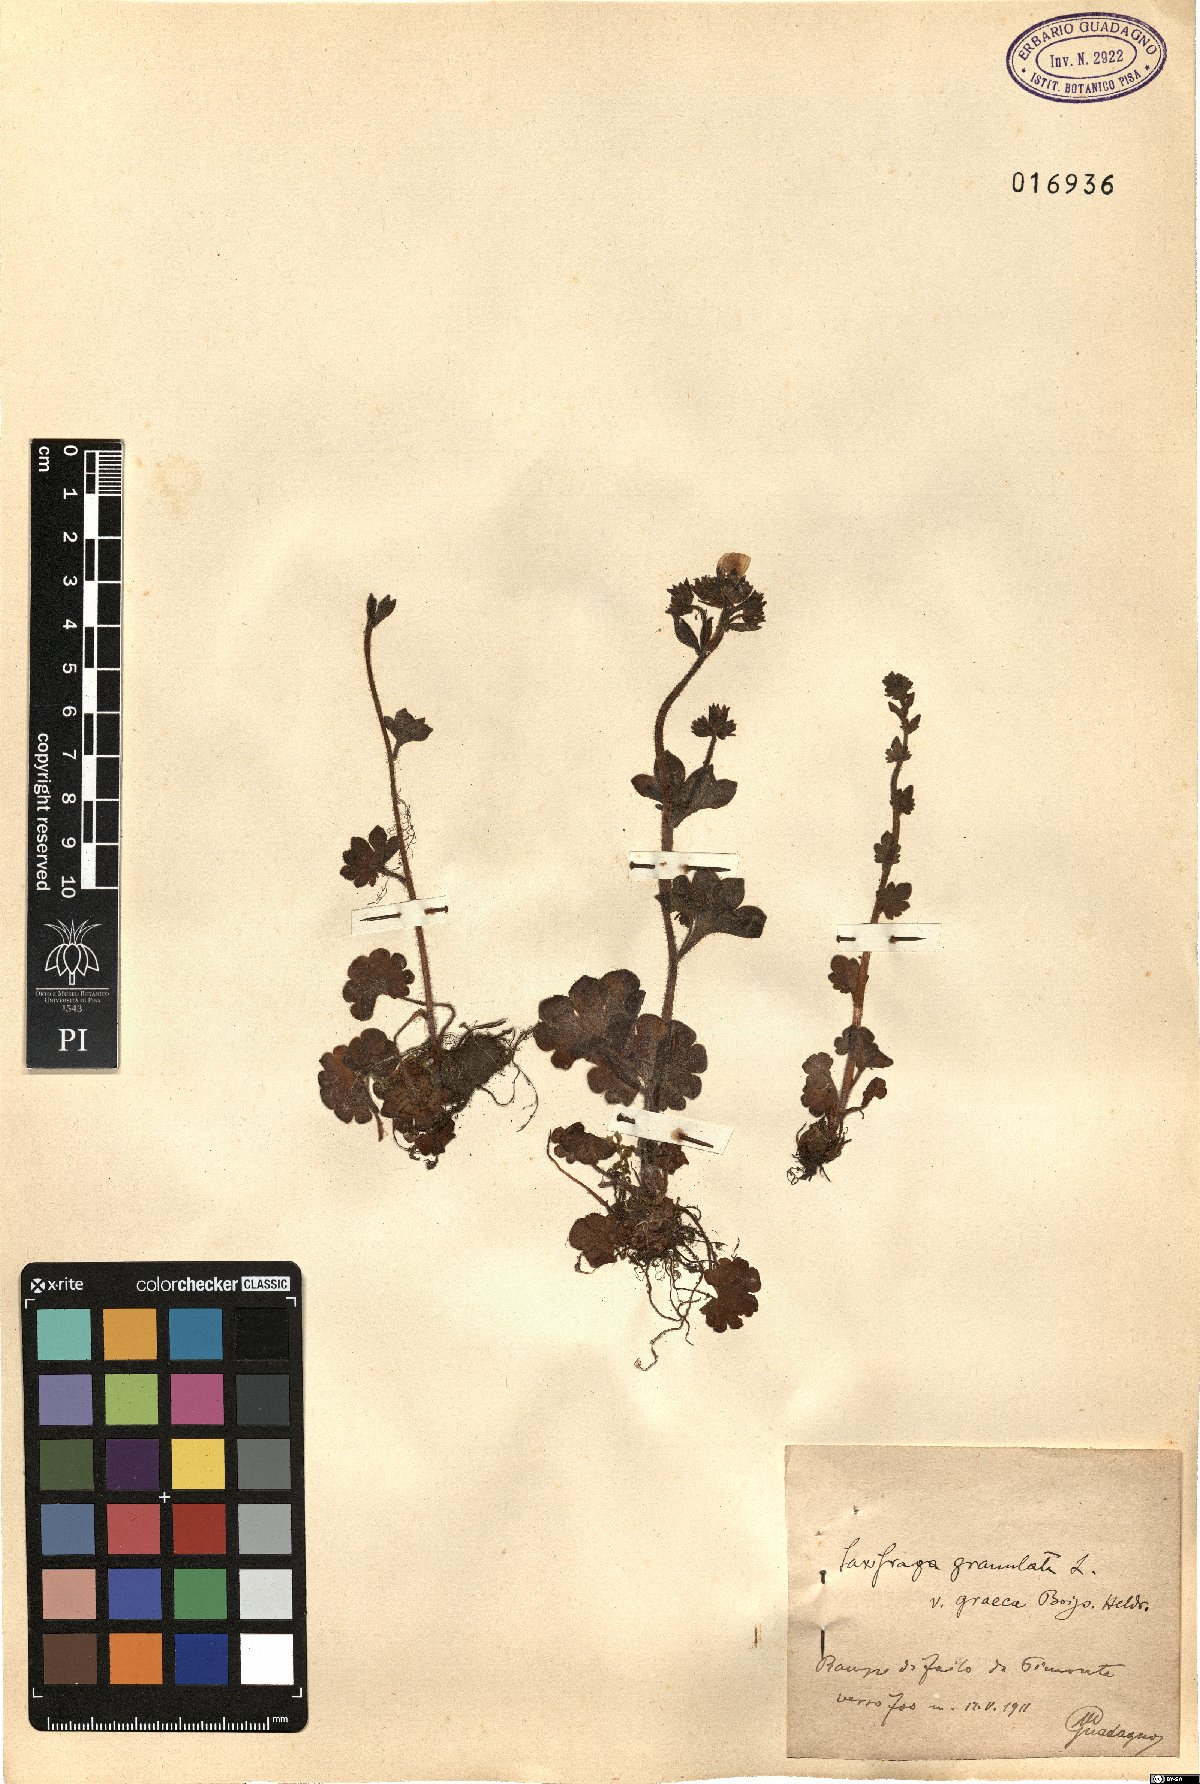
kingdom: Plantae
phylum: Tracheophyta
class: Magnoliopsida
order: Saxifragales
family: Saxifragaceae
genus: Saxifraga
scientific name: Saxifraga carpetana
